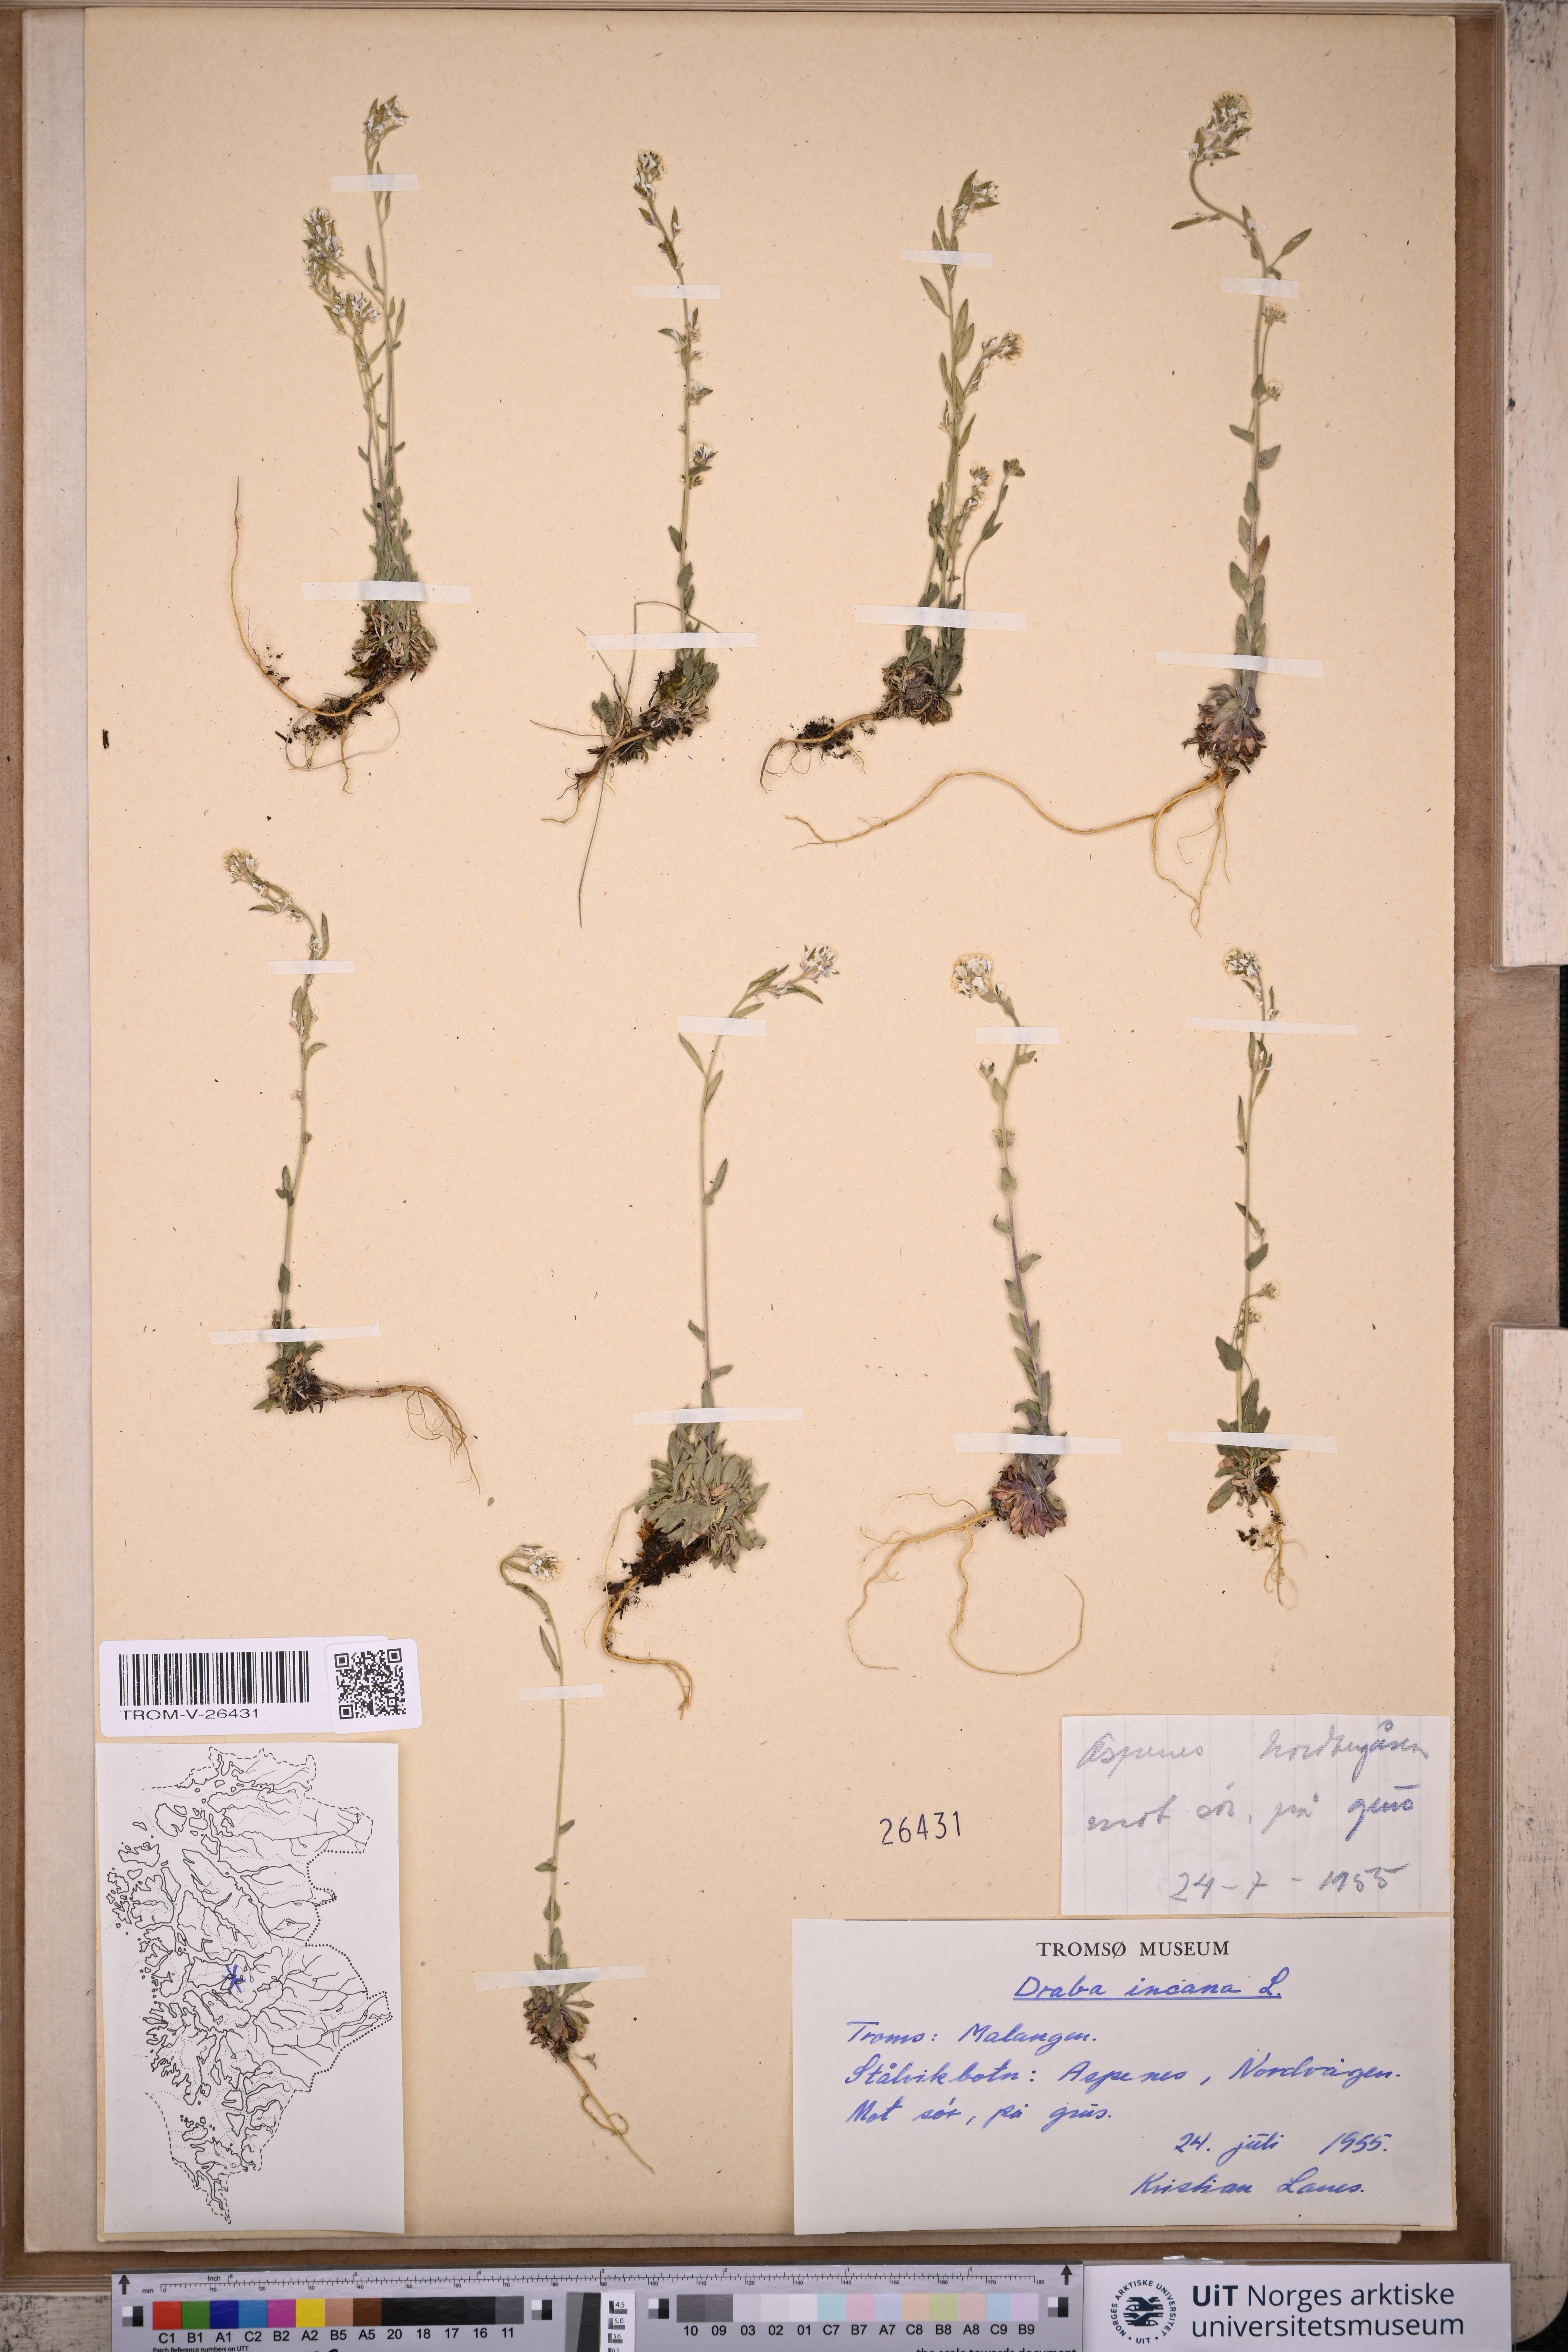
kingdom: Plantae
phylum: Tracheophyta
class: Magnoliopsida
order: Brassicales
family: Brassicaceae
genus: Draba
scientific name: Draba incana
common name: Hoary whitlow-grass
